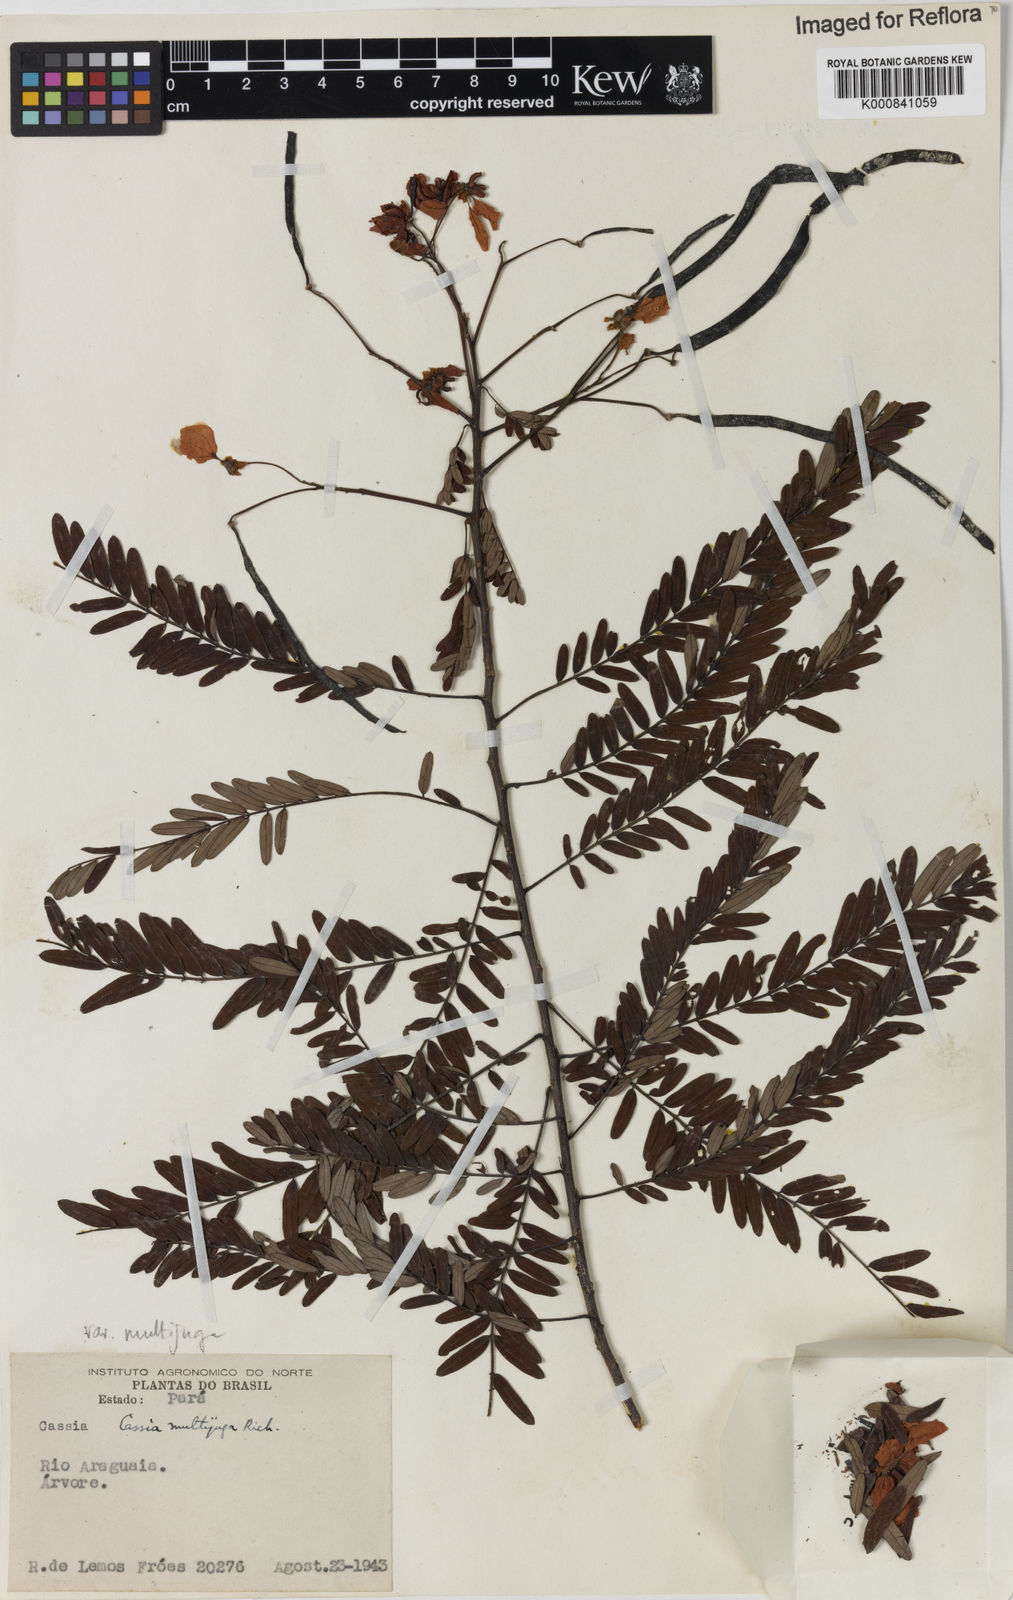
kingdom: Plantae
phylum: Tracheophyta
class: Magnoliopsida
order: Fabales
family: Fabaceae
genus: Senna
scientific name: Senna multijuga
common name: False sicklepod
